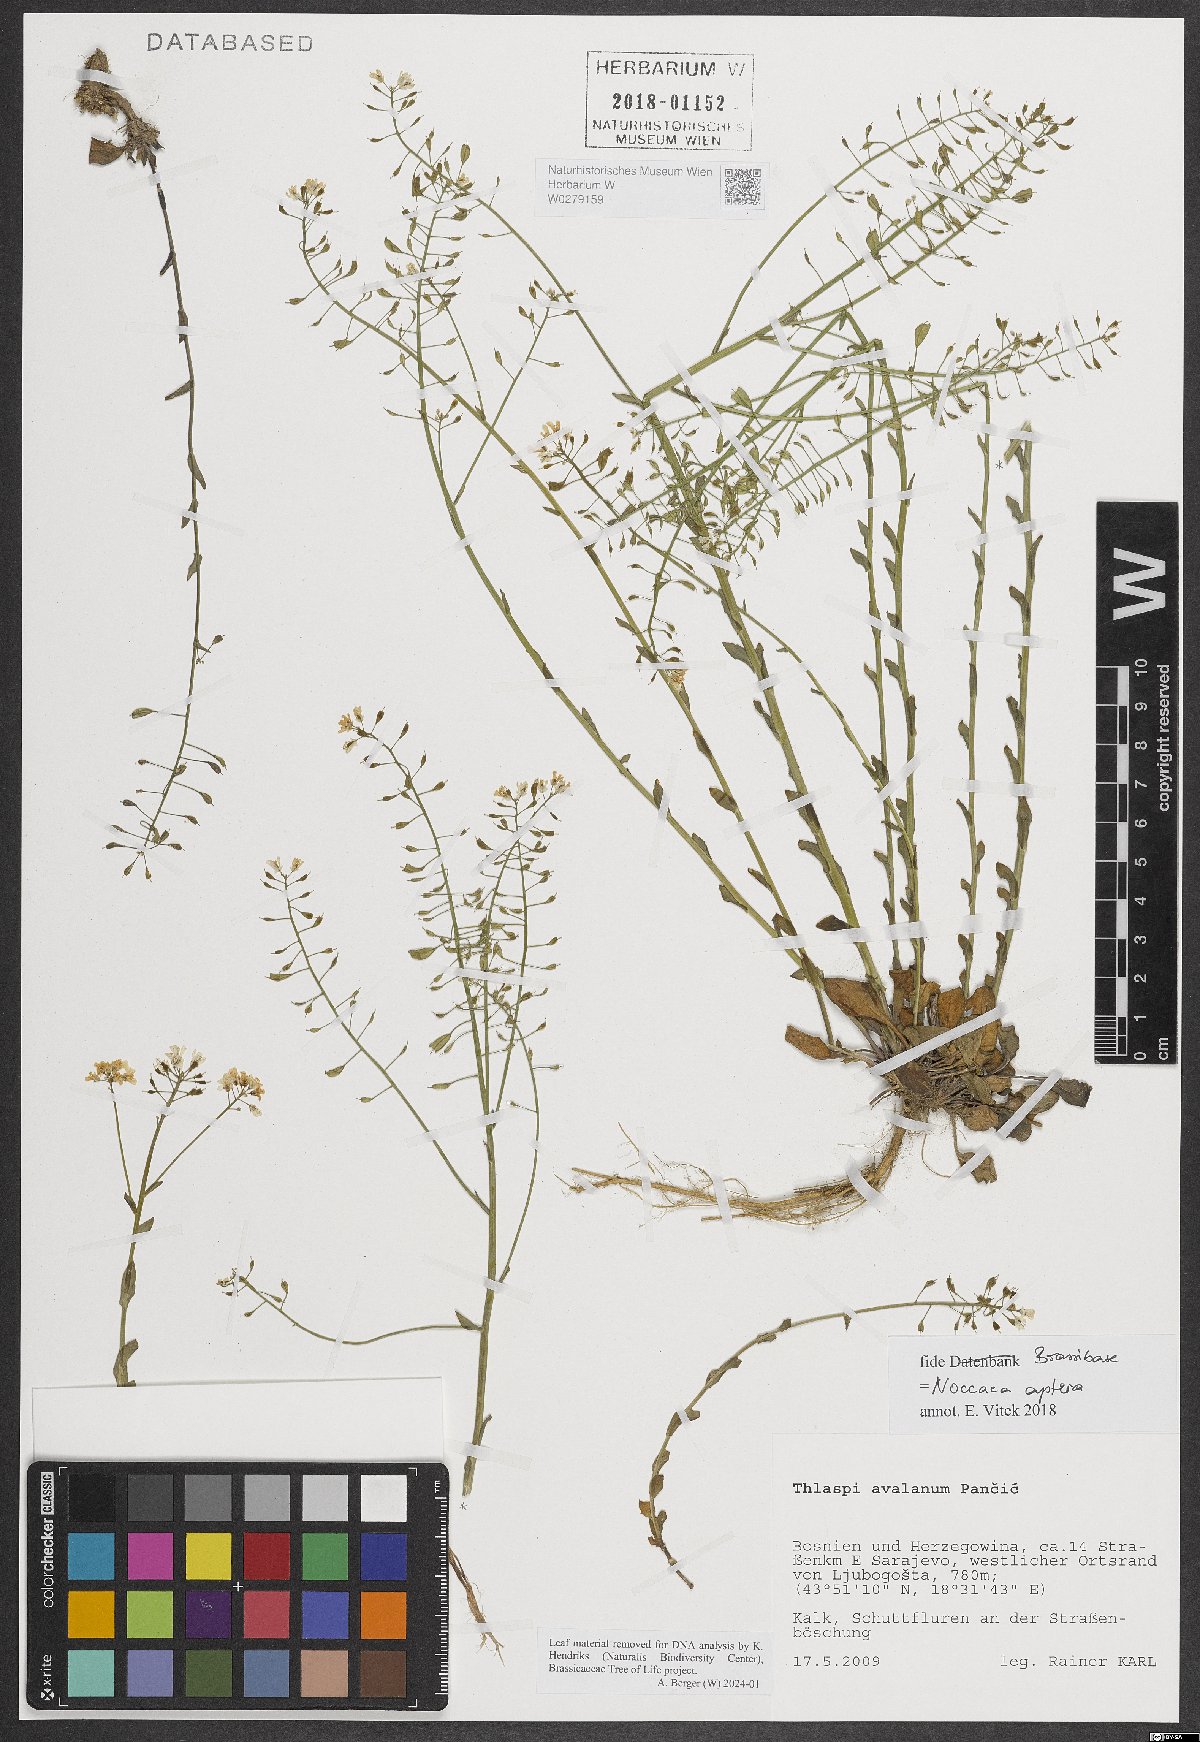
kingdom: Plantae
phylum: Tracheophyta
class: Magnoliopsida
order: Brassicales
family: Brassicaceae
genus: Noccaea
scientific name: Noccaea aptera
